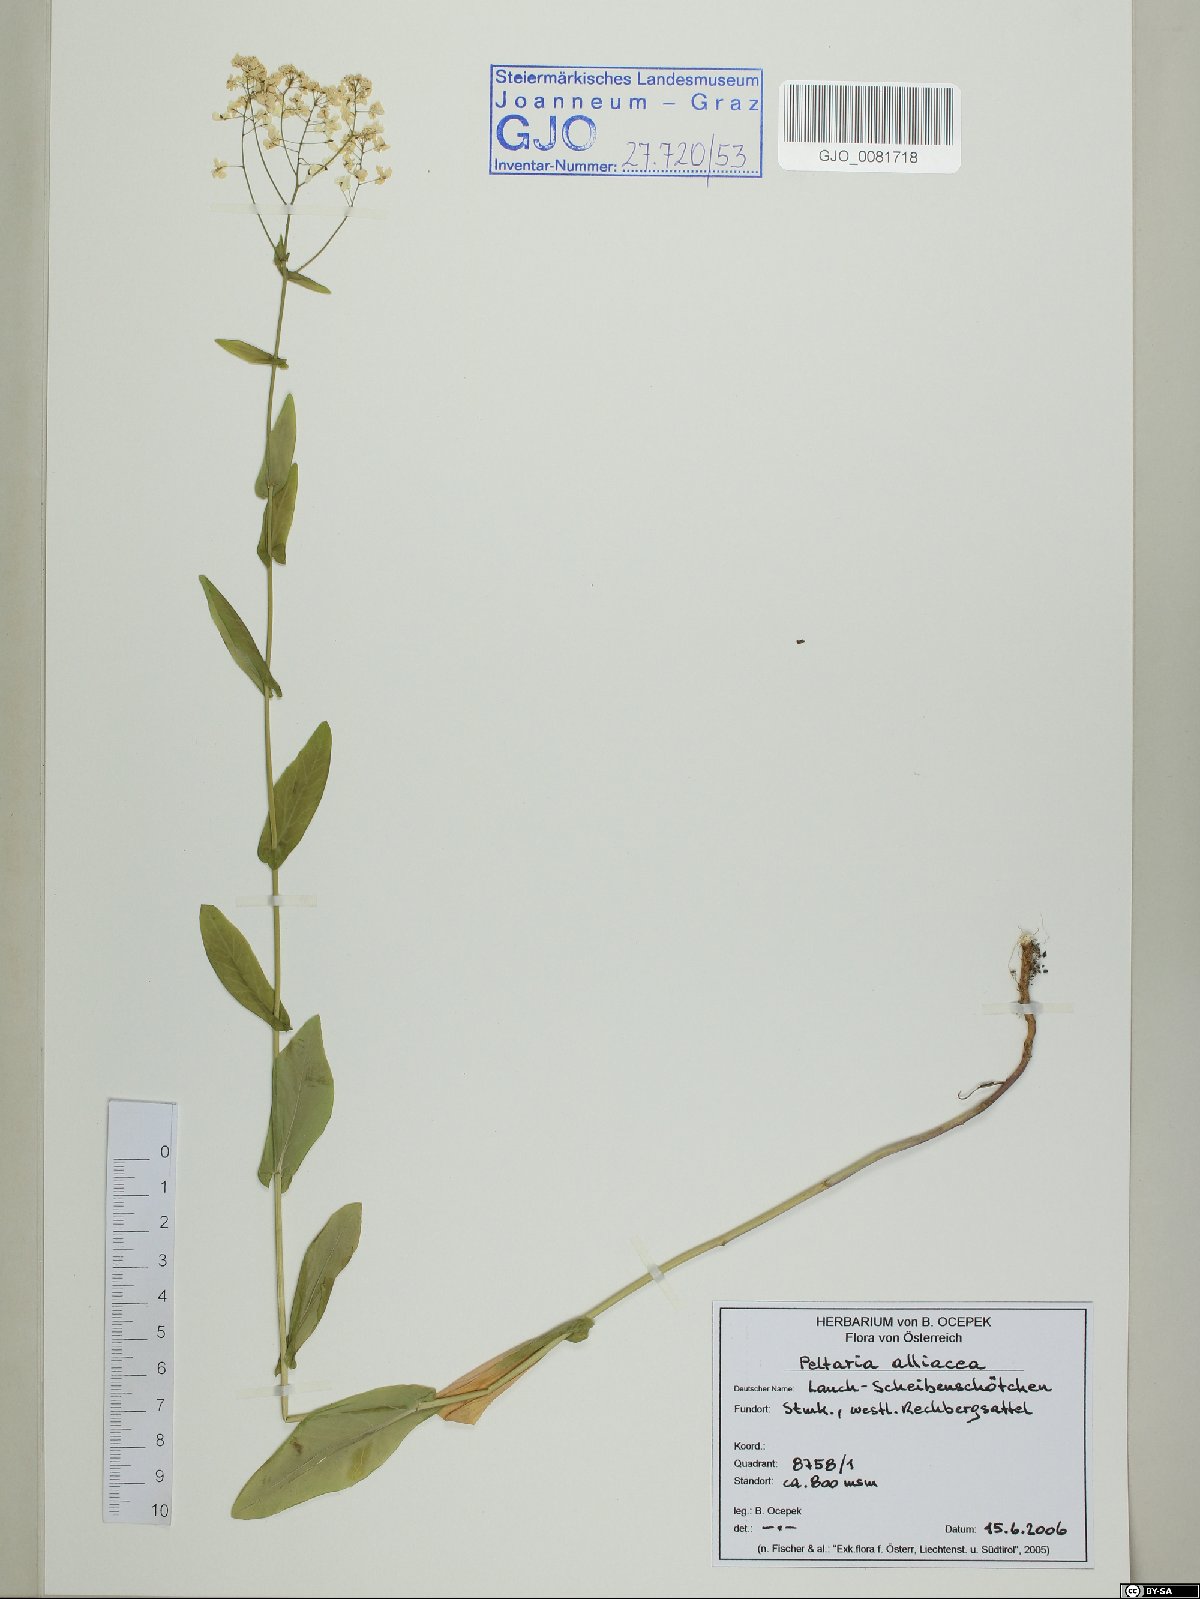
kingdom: Plantae
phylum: Tracheophyta
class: Magnoliopsida
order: Brassicales
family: Brassicaceae
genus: Peltaria
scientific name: Peltaria alliacea
